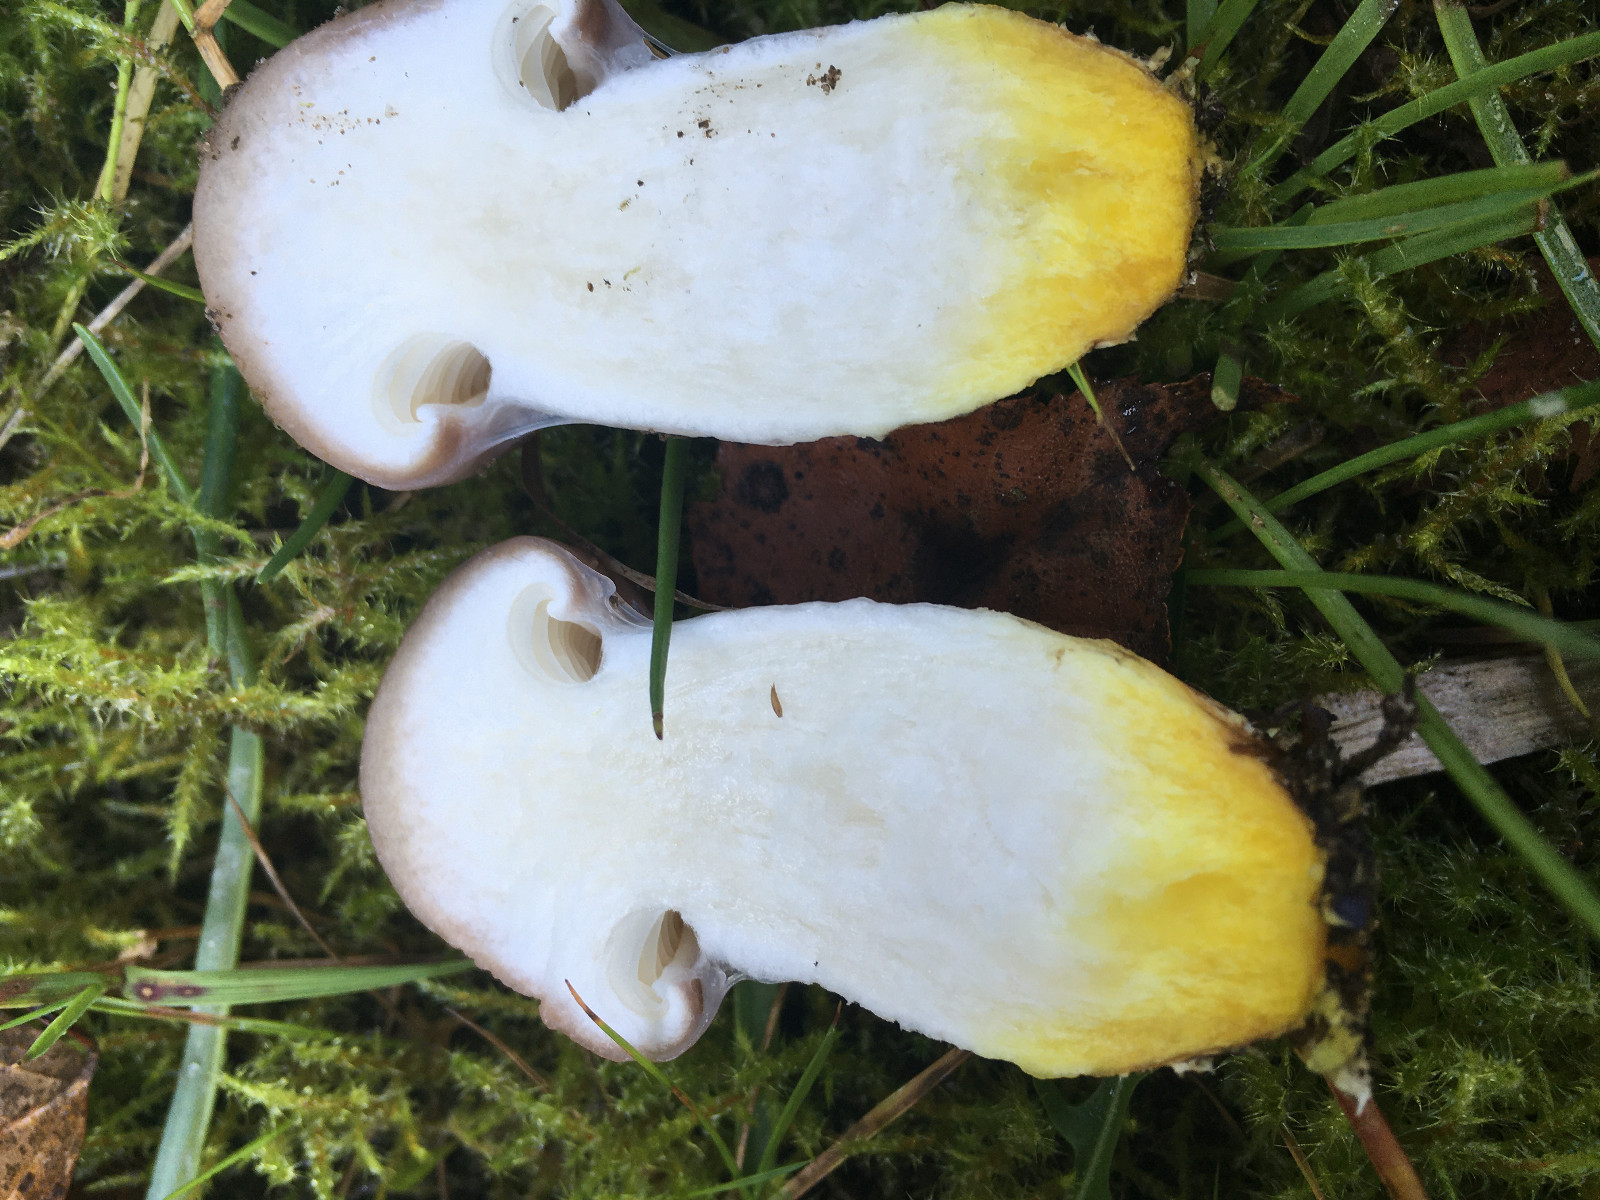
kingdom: Fungi
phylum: Basidiomycota
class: Agaricomycetes
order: Boletales
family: Gomphidiaceae
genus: Gomphidius
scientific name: Gomphidius glutinosus
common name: grå slimslør
